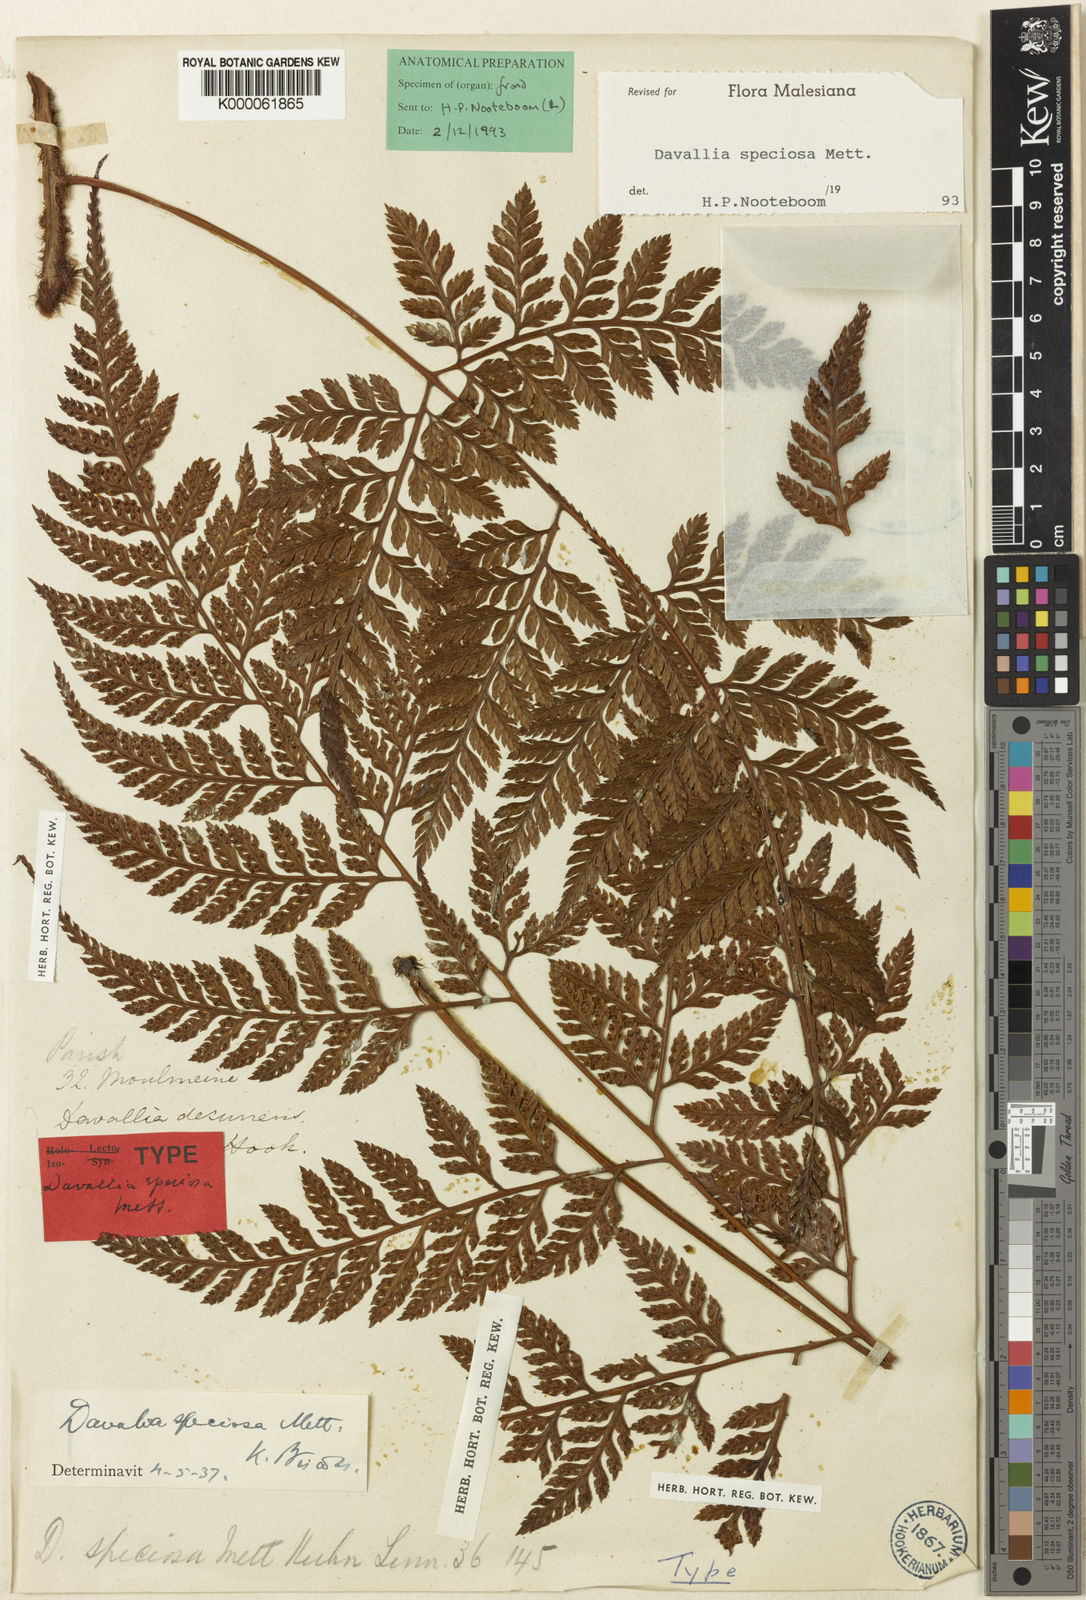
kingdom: Plantae
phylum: Tracheophyta
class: Polypodiopsida
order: Polypodiales
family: Davalliaceae
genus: Davallia
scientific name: Davallia speciosa
